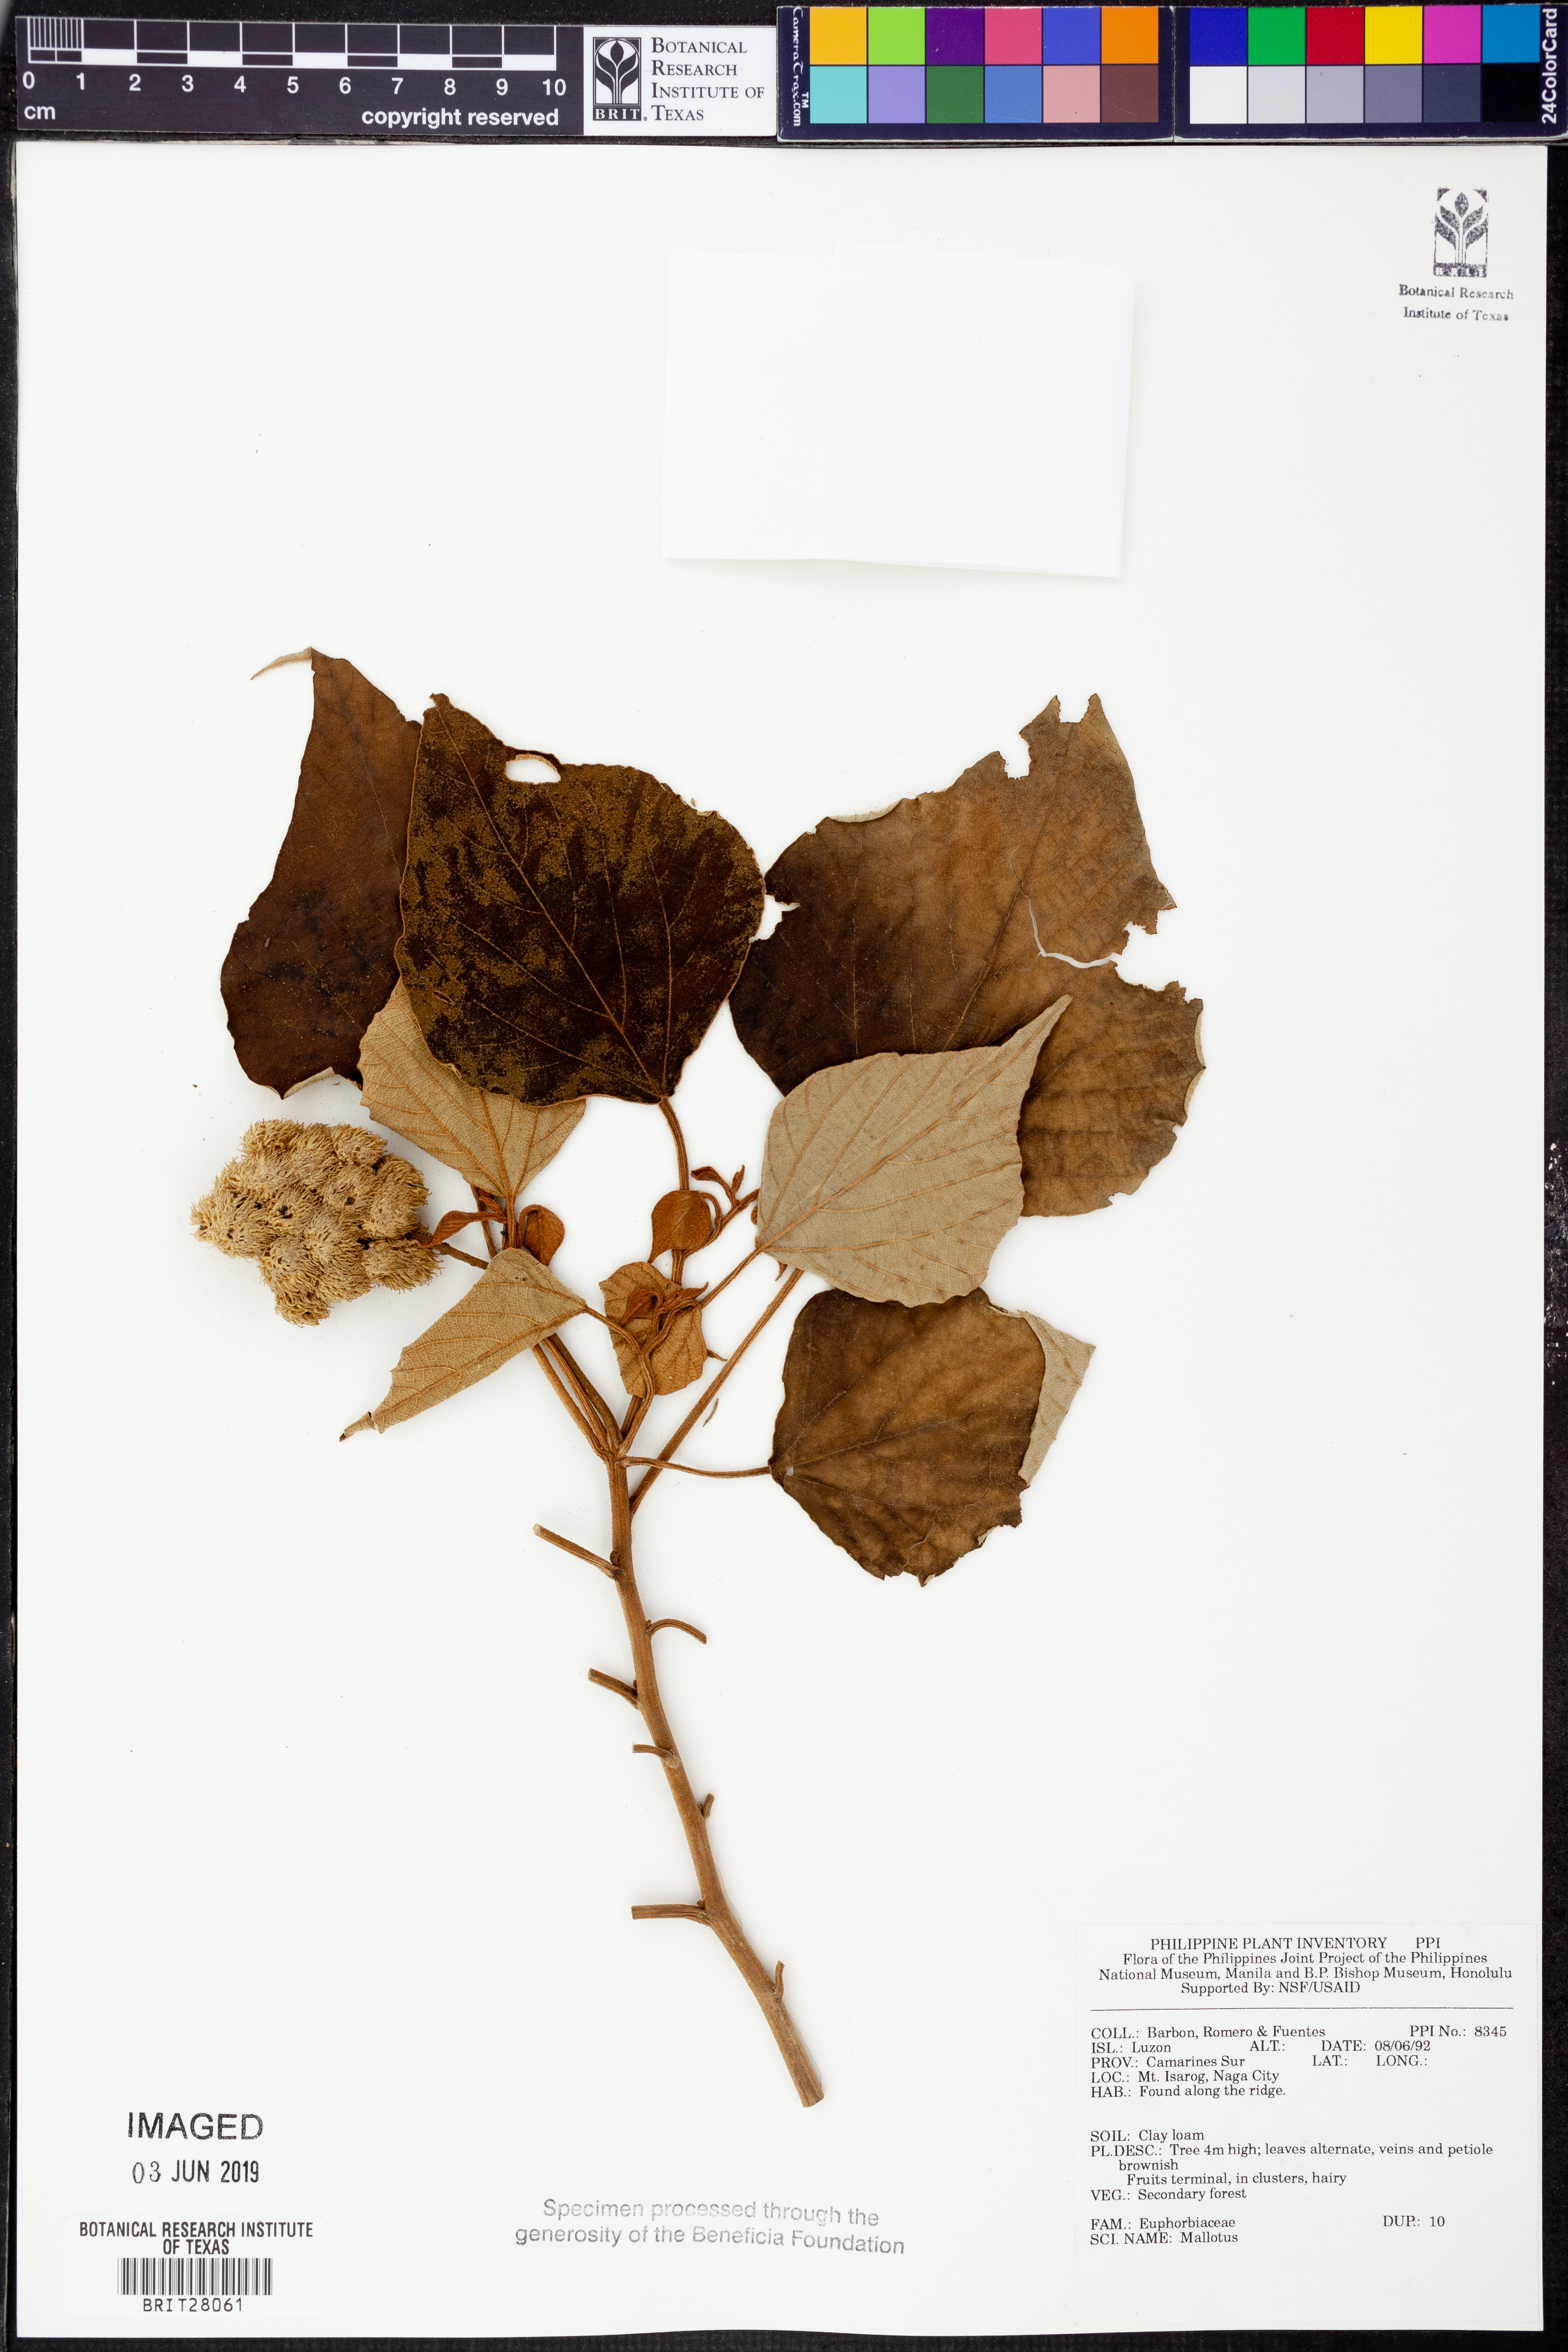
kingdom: Plantae
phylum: Tracheophyta
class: Magnoliopsida
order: Malpighiales
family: Euphorbiaceae
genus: Mallotus
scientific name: Mallotus
